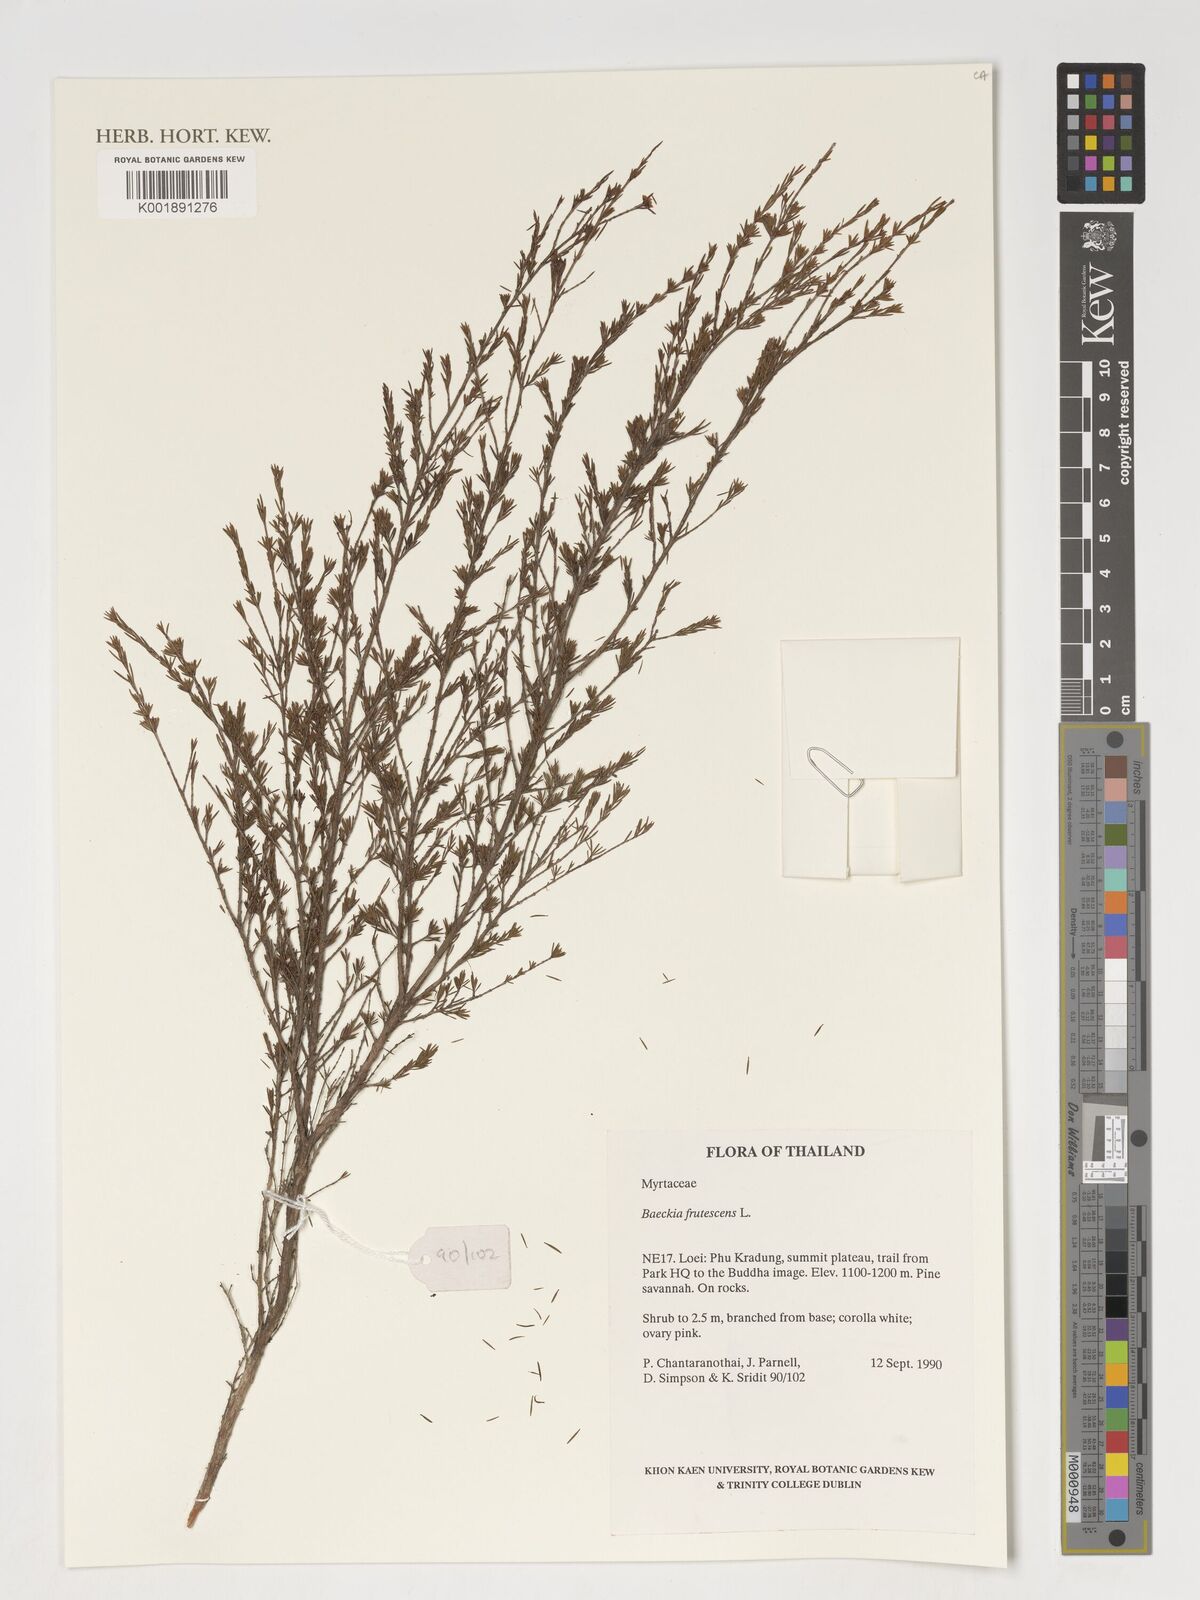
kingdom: Plantae
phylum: Tracheophyta
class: Magnoliopsida
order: Myrtales
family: Myrtaceae
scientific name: Myrtaceae
